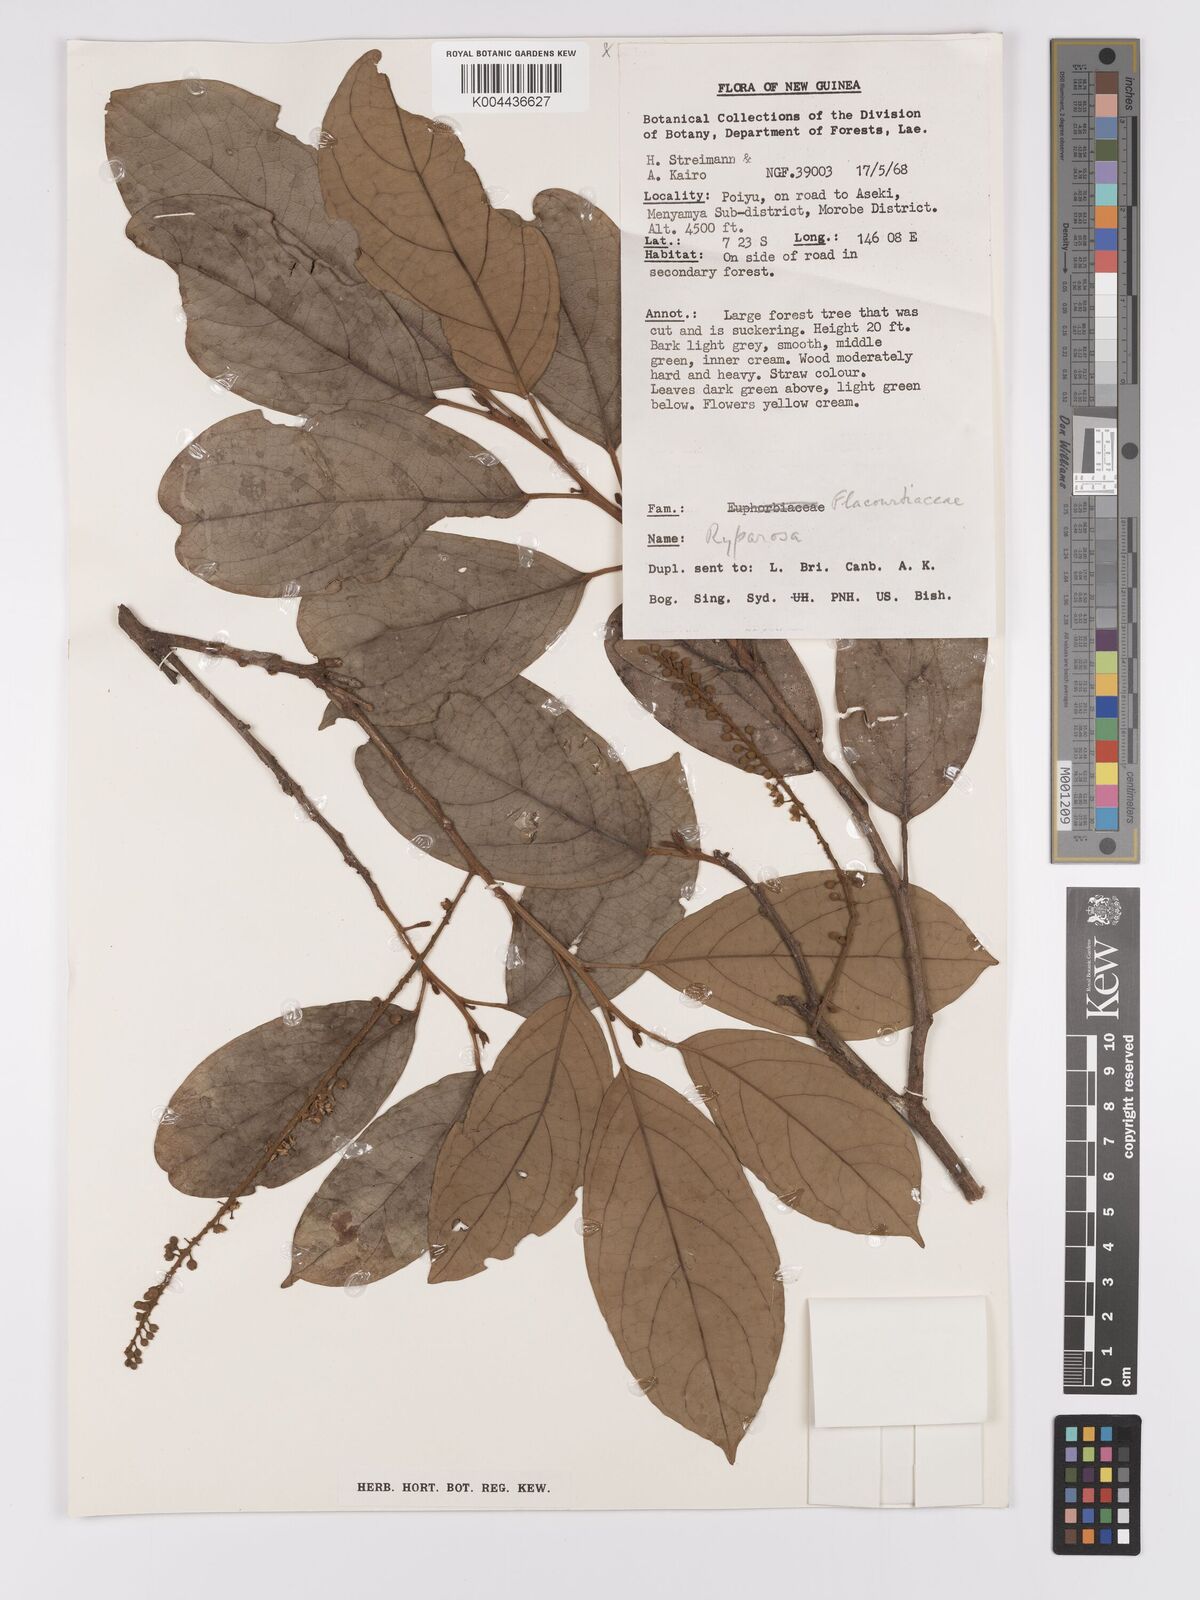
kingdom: Plantae
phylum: Tracheophyta
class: Magnoliopsida
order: Malpighiales
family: Achariaceae
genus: Ryparosa
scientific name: Ryparosa
